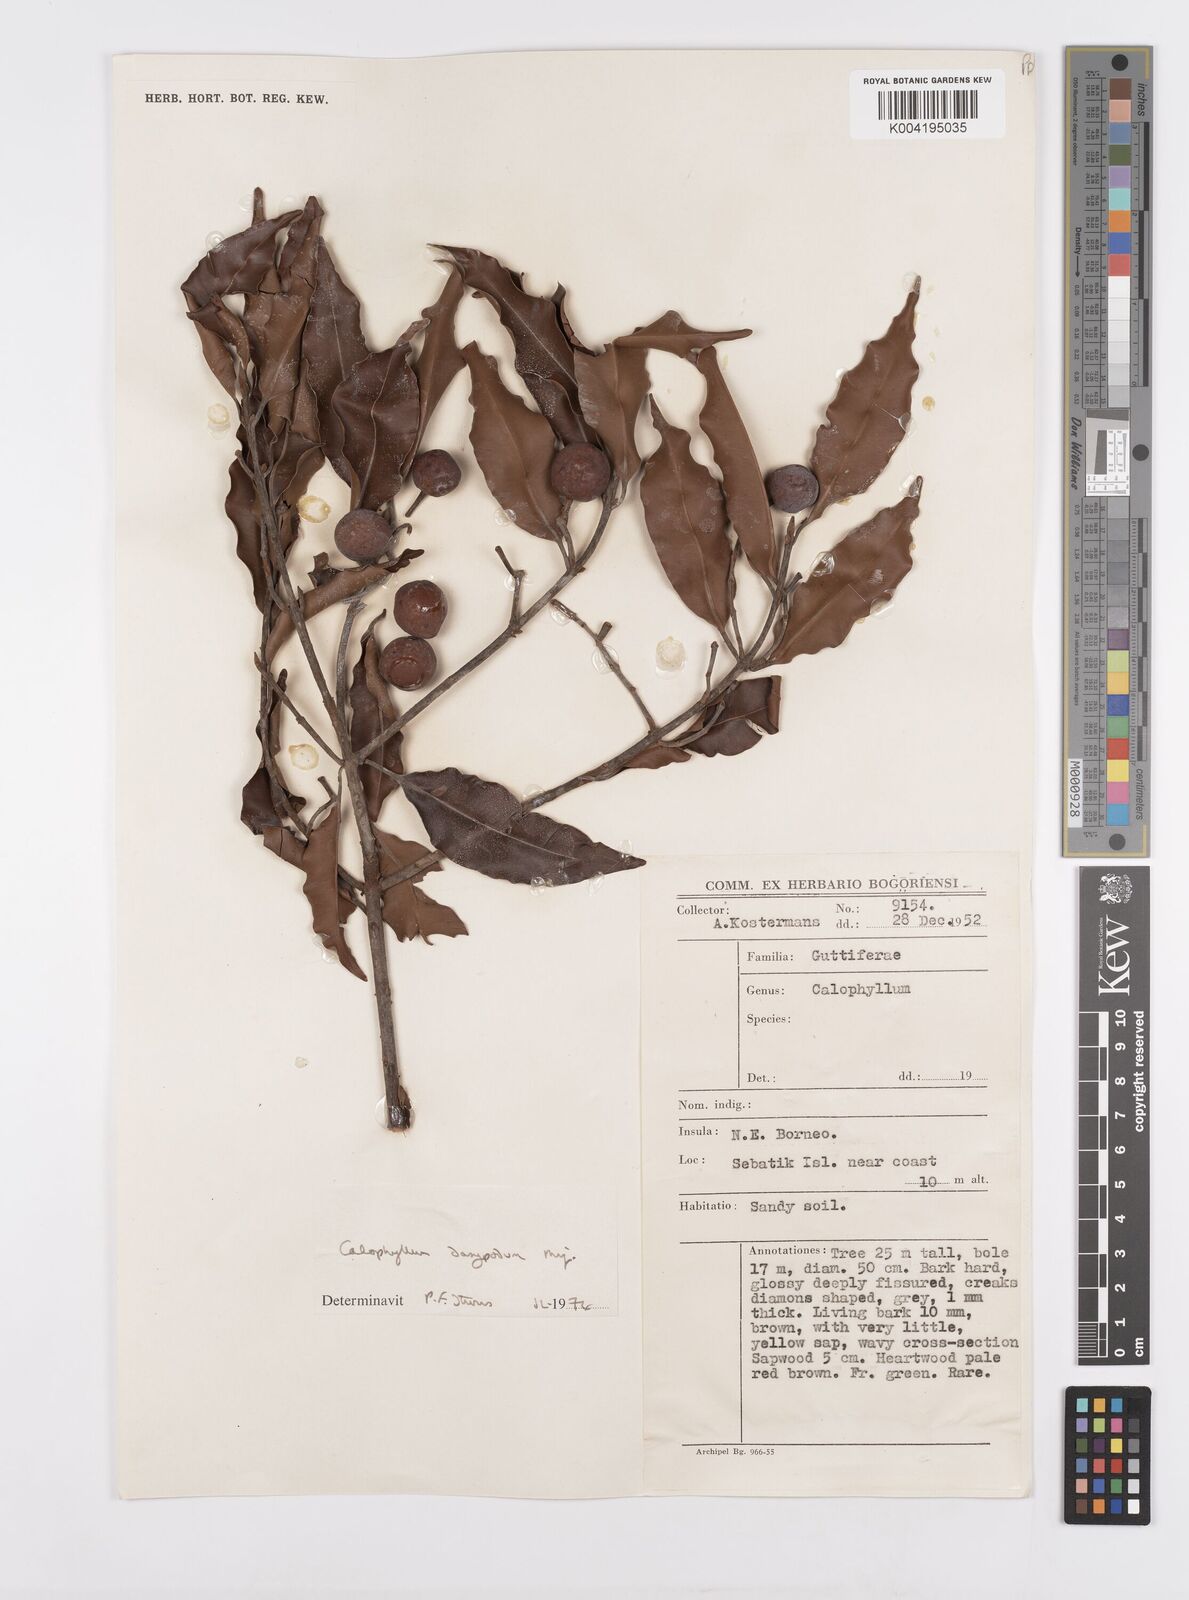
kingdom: Plantae
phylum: Tracheophyta
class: Magnoliopsida
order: Malpighiales
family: Calophyllaceae
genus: Calophyllum
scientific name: Calophyllum dasypodium
